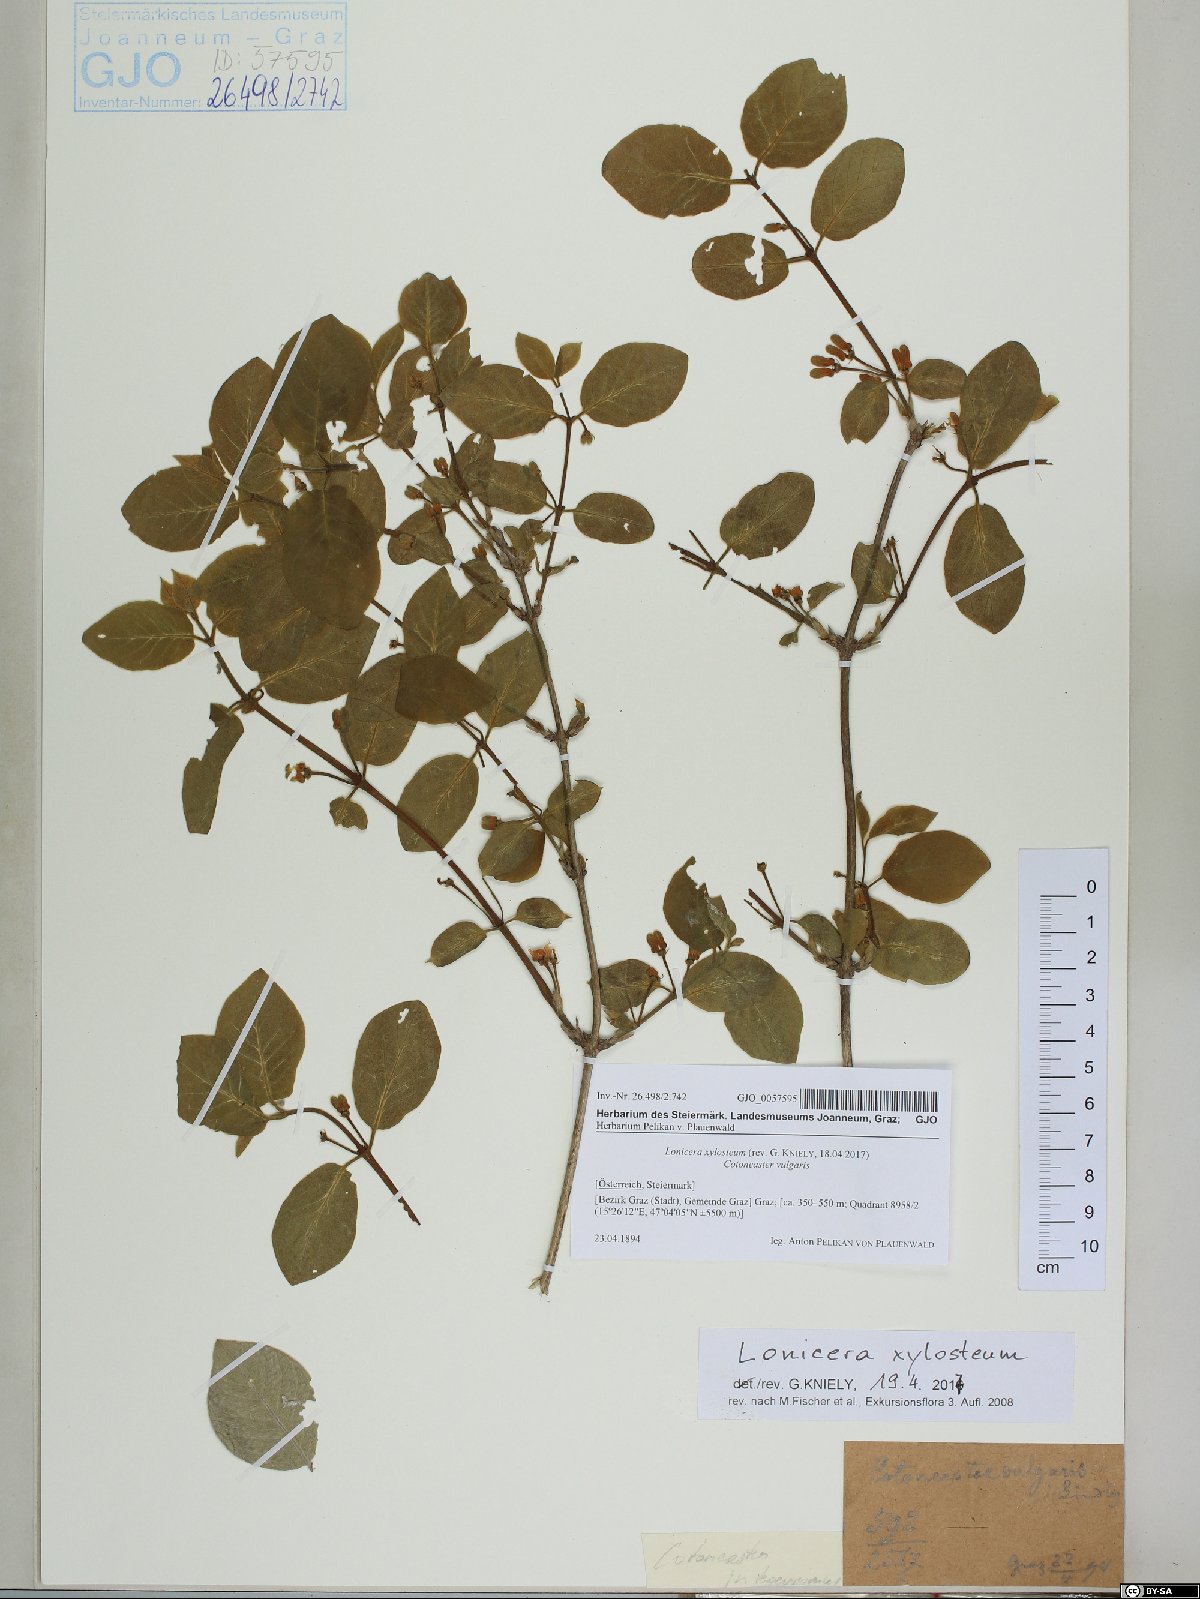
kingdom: Plantae
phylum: Tracheophyta
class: Magnoliopsida
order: Dipsacales
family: Caprifoliaceae
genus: Lonicera
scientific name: Lonicera xylosteum
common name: Fly honeysuckle
